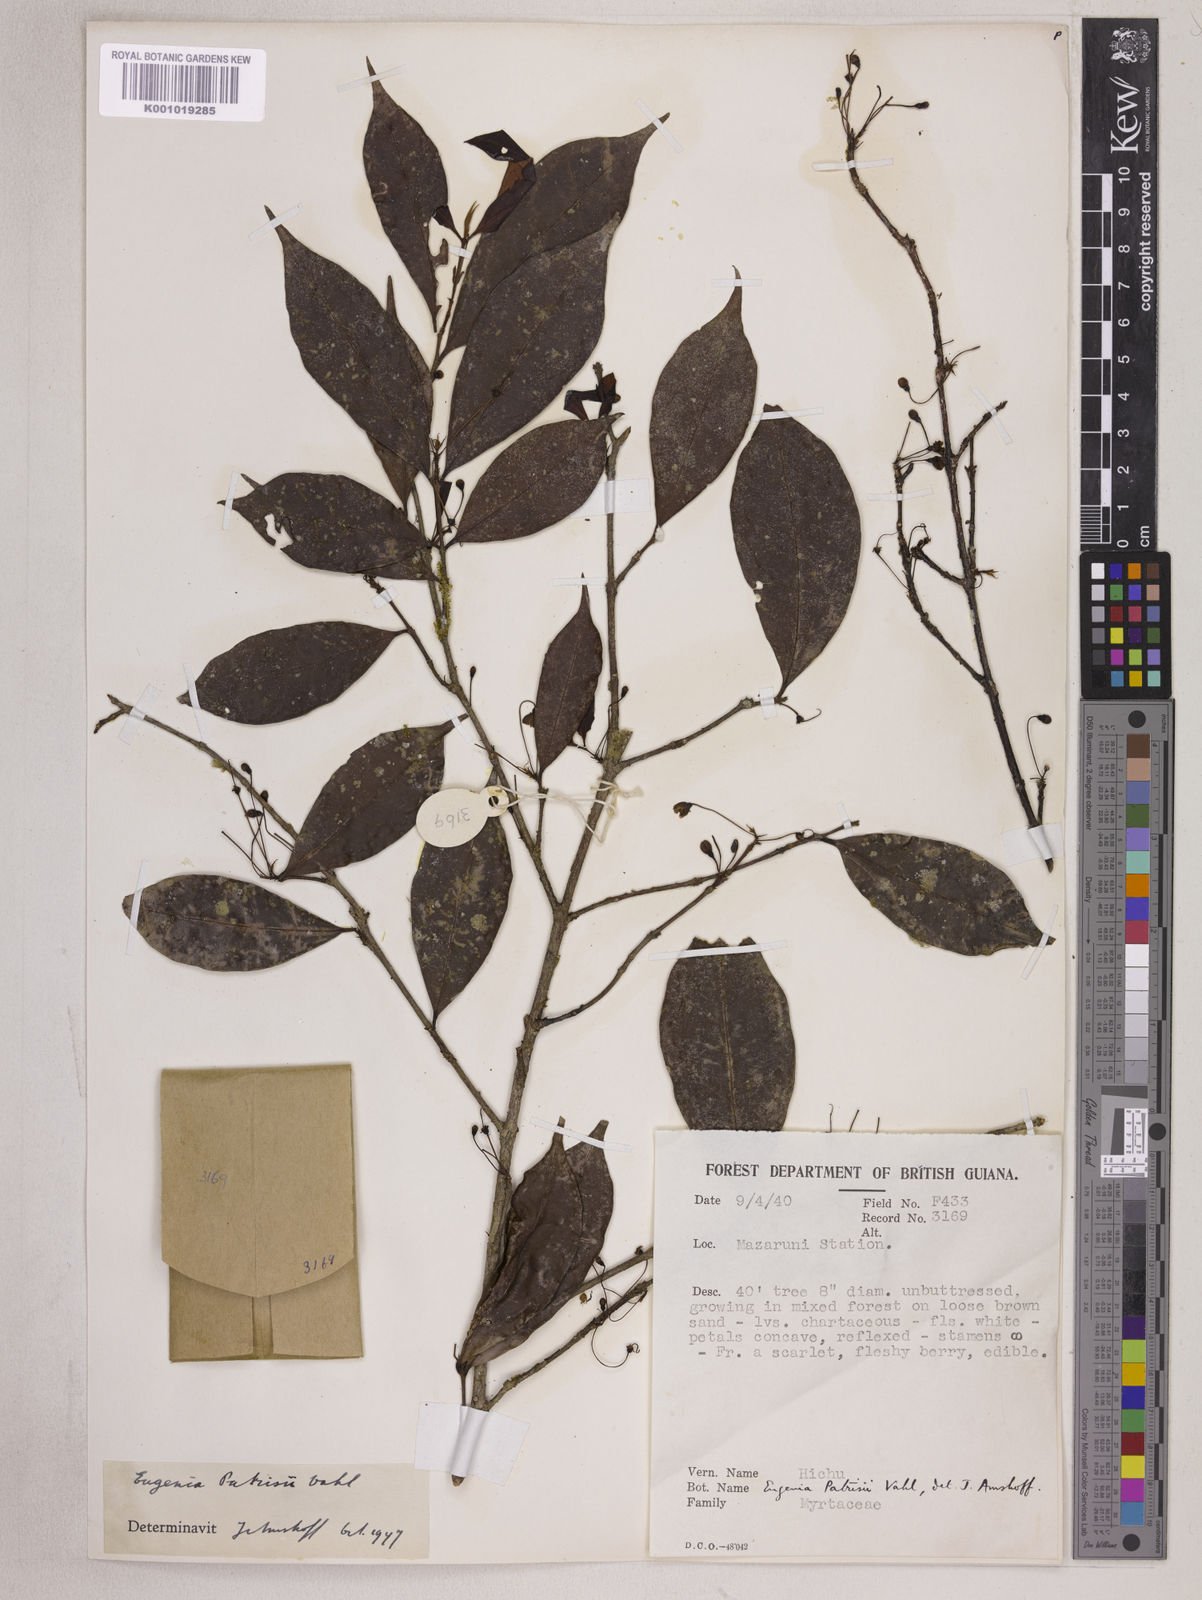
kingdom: Plantae
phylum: Tracheophyta
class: Magnoliopsida
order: Myrtales
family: Myrtaceae
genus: Eugenia
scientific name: Eugenia patrisii
